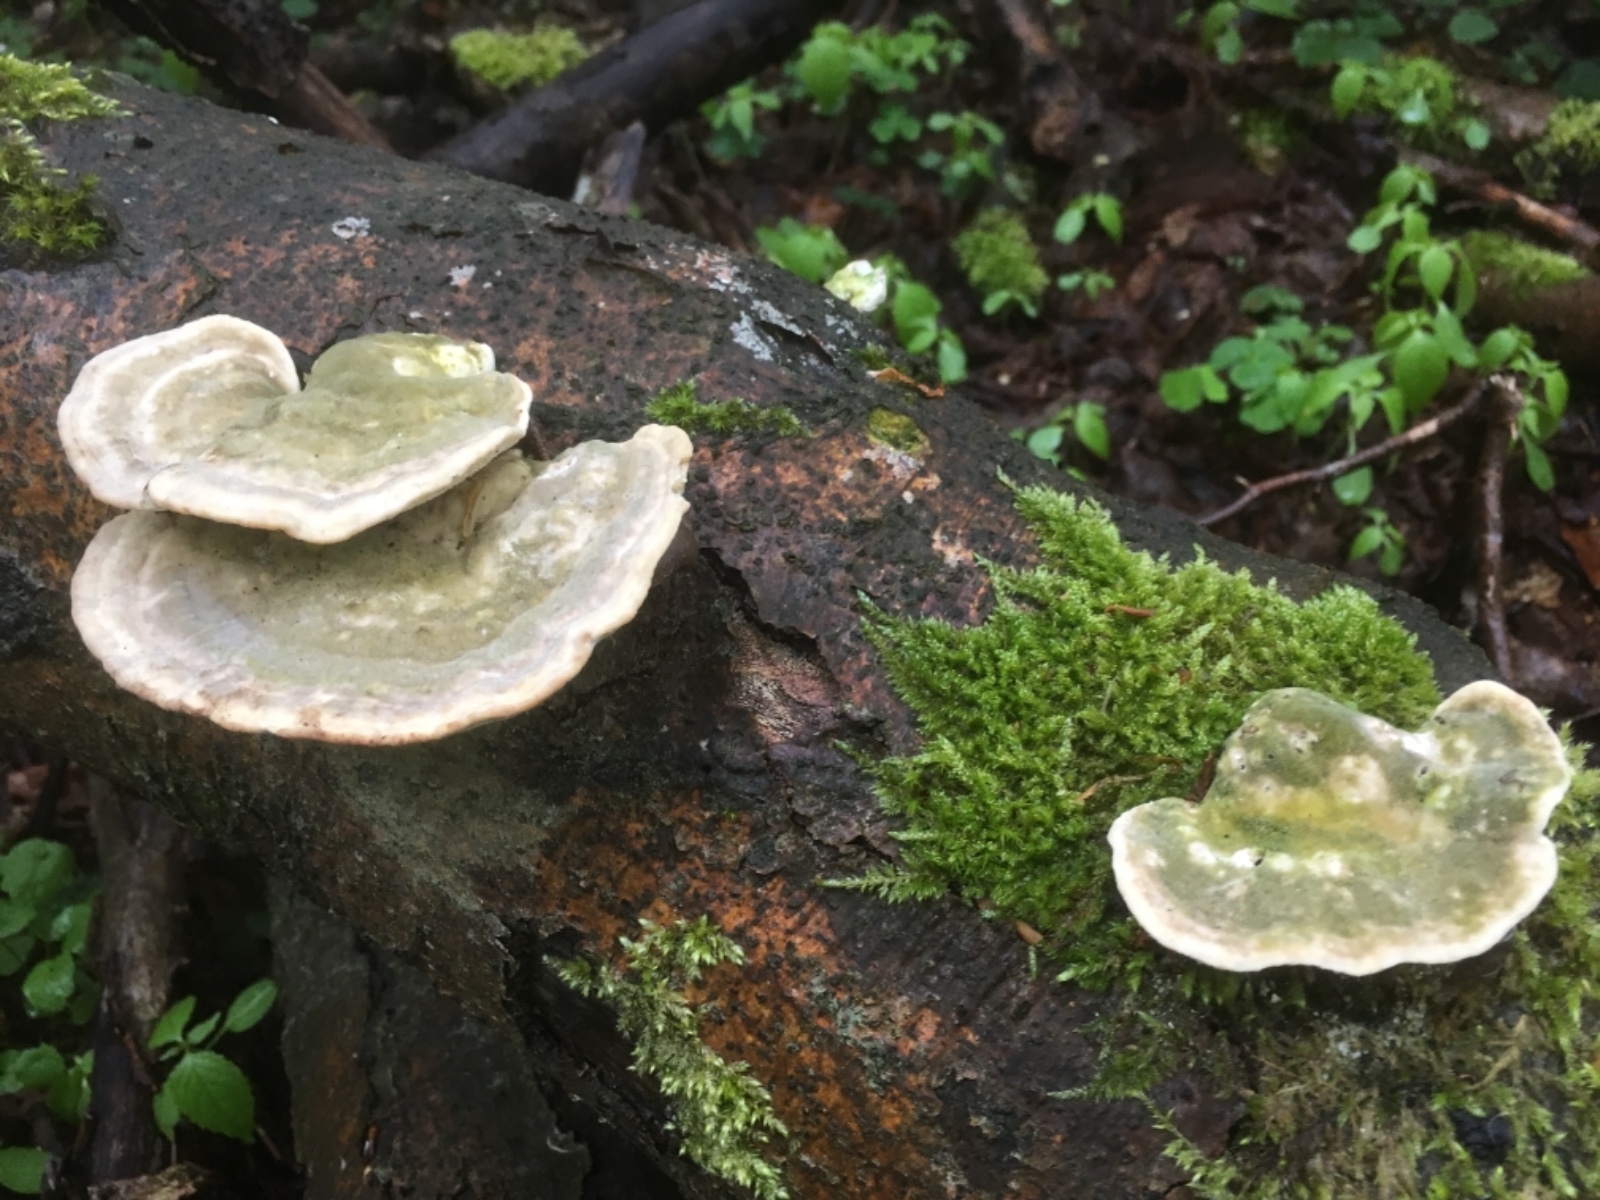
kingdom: Fungi
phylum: Basidiomycota
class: Agaricomycetes
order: Polyporales
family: Polyporaceae
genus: Trametes
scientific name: Trametes gibbosa
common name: puklet læderporesvamp
